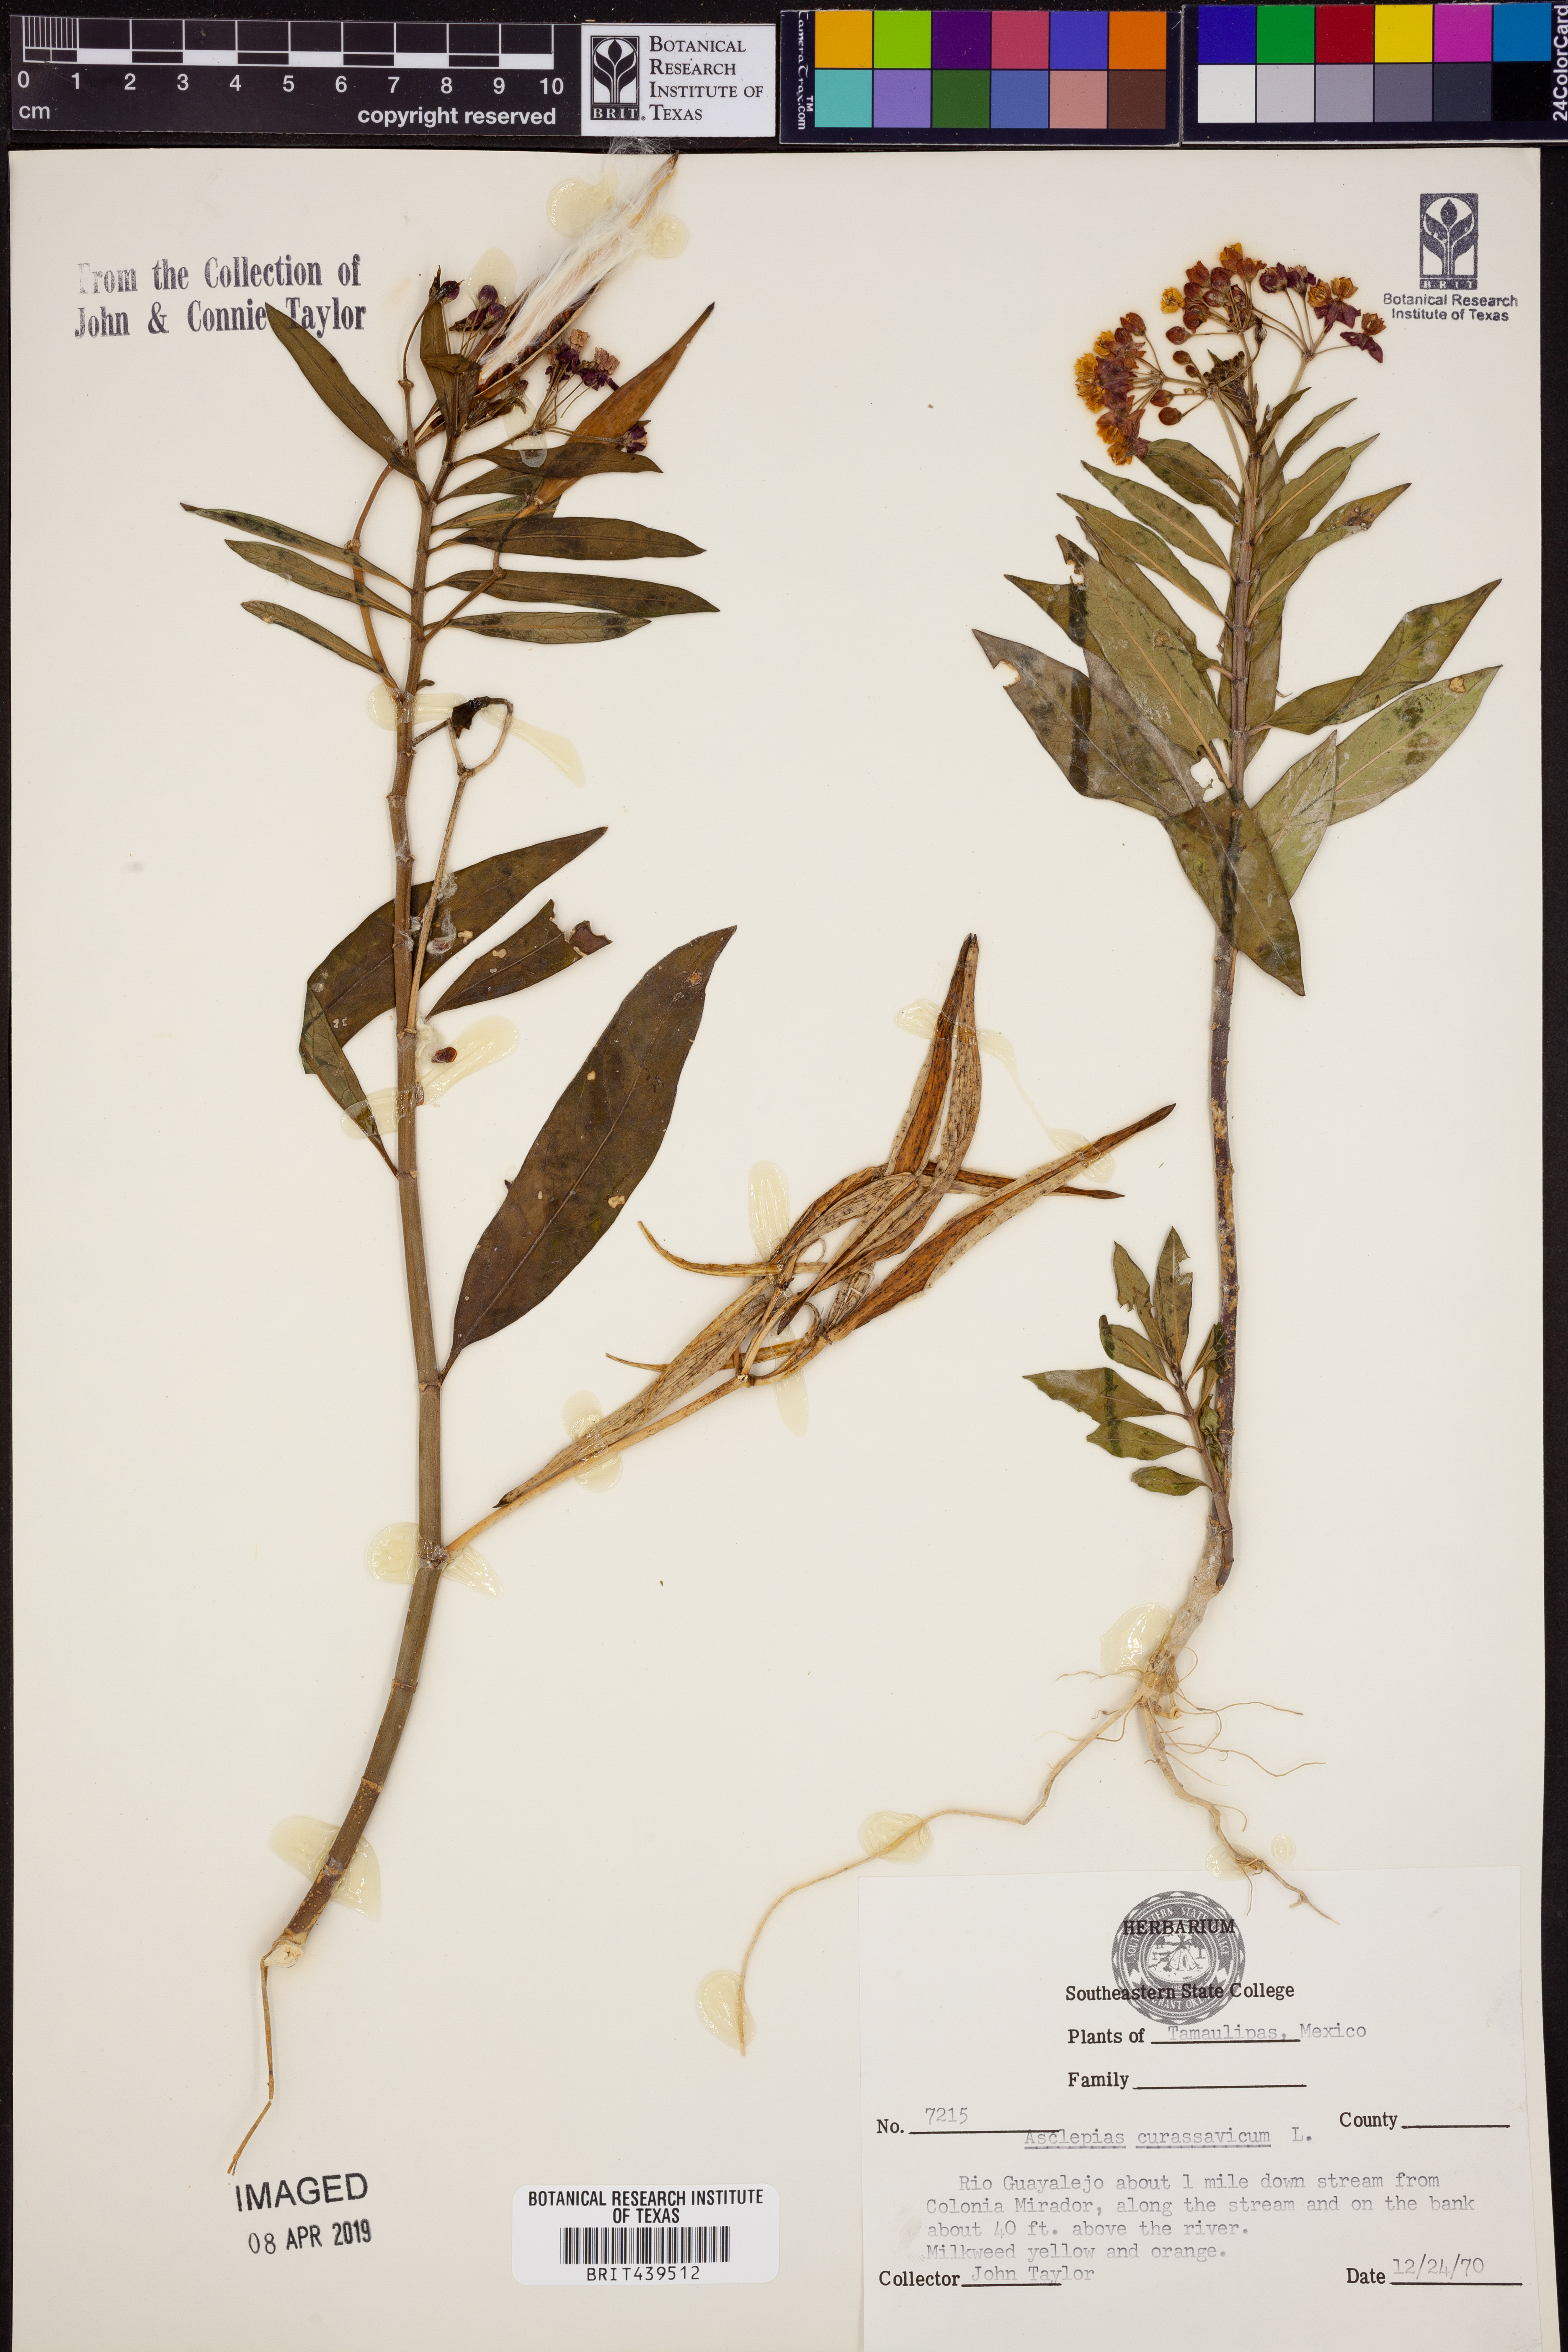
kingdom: Plantae
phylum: Tracheophyta
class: Magnoliopsida
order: Gentianales
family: Apocynaceae
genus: Asclepias
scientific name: Asclepias curassavica
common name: Bloodflower
